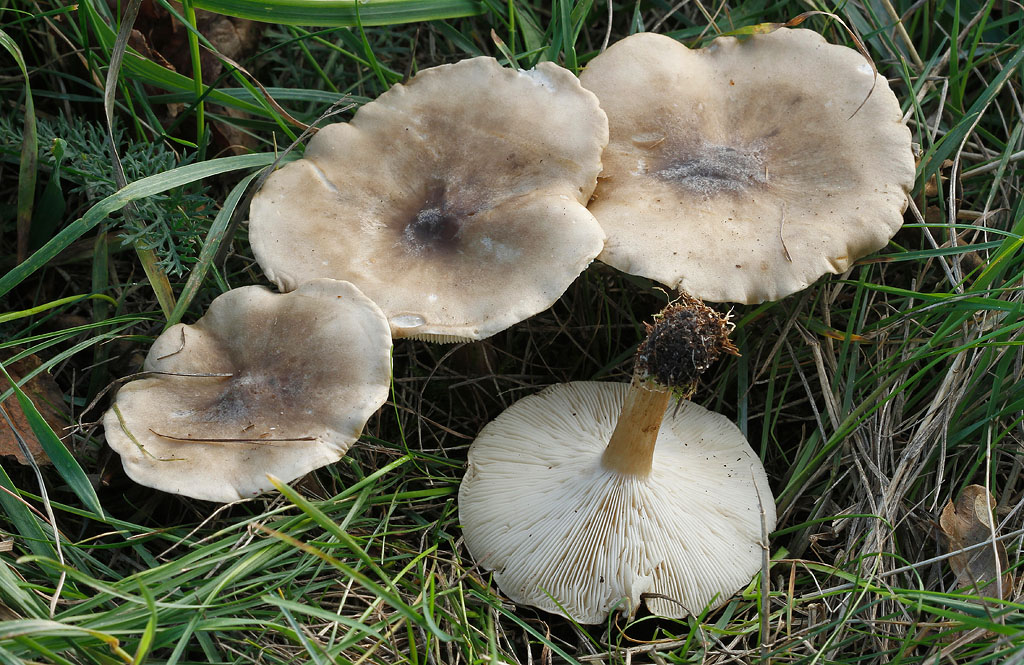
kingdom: Fungi
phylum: Basidiomycota
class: Agaricomycetes
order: Agaricales
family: Tricholomataceae
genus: Melanoleuca
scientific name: Melanoleuca grammopodia
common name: stribestokket munkehat
